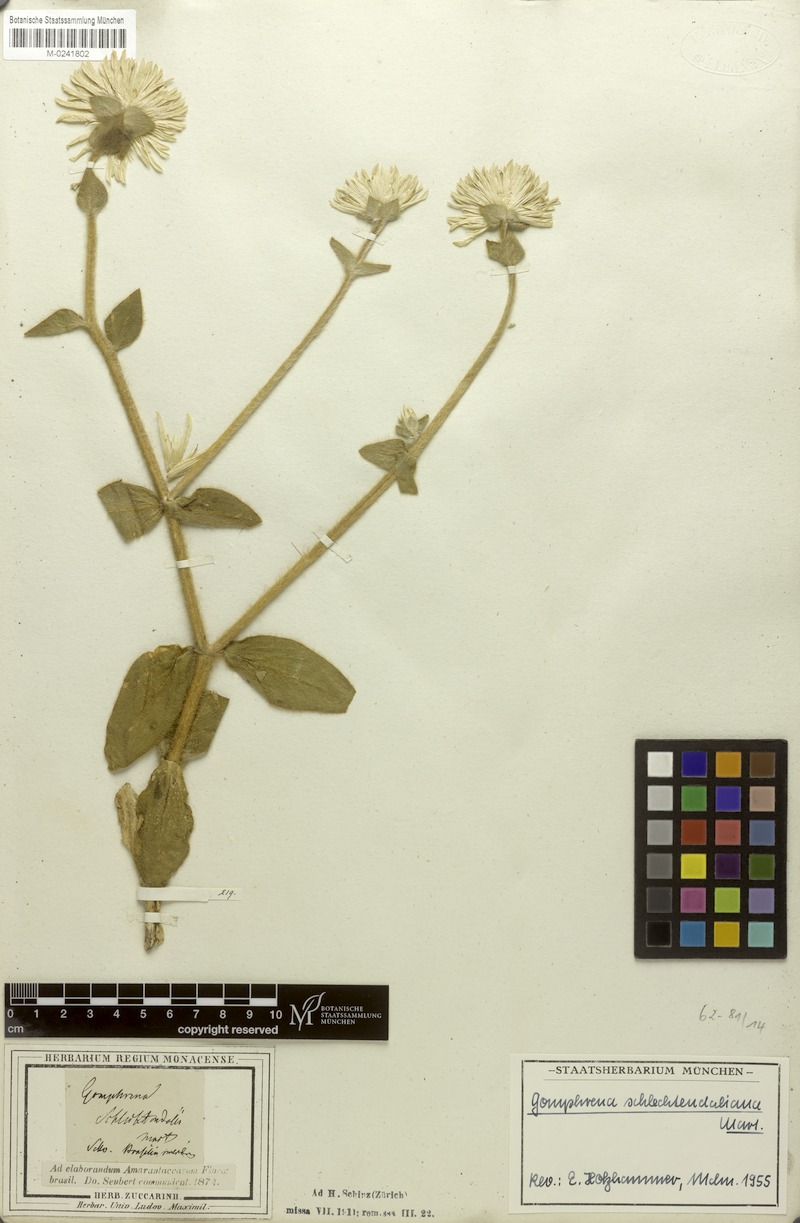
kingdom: Plantae
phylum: Tracheophyta
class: Magnoliopsida
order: Caryophyllales
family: Amaranthaceae
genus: Gomphrena
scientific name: Gomphrena schlechtendaliana
